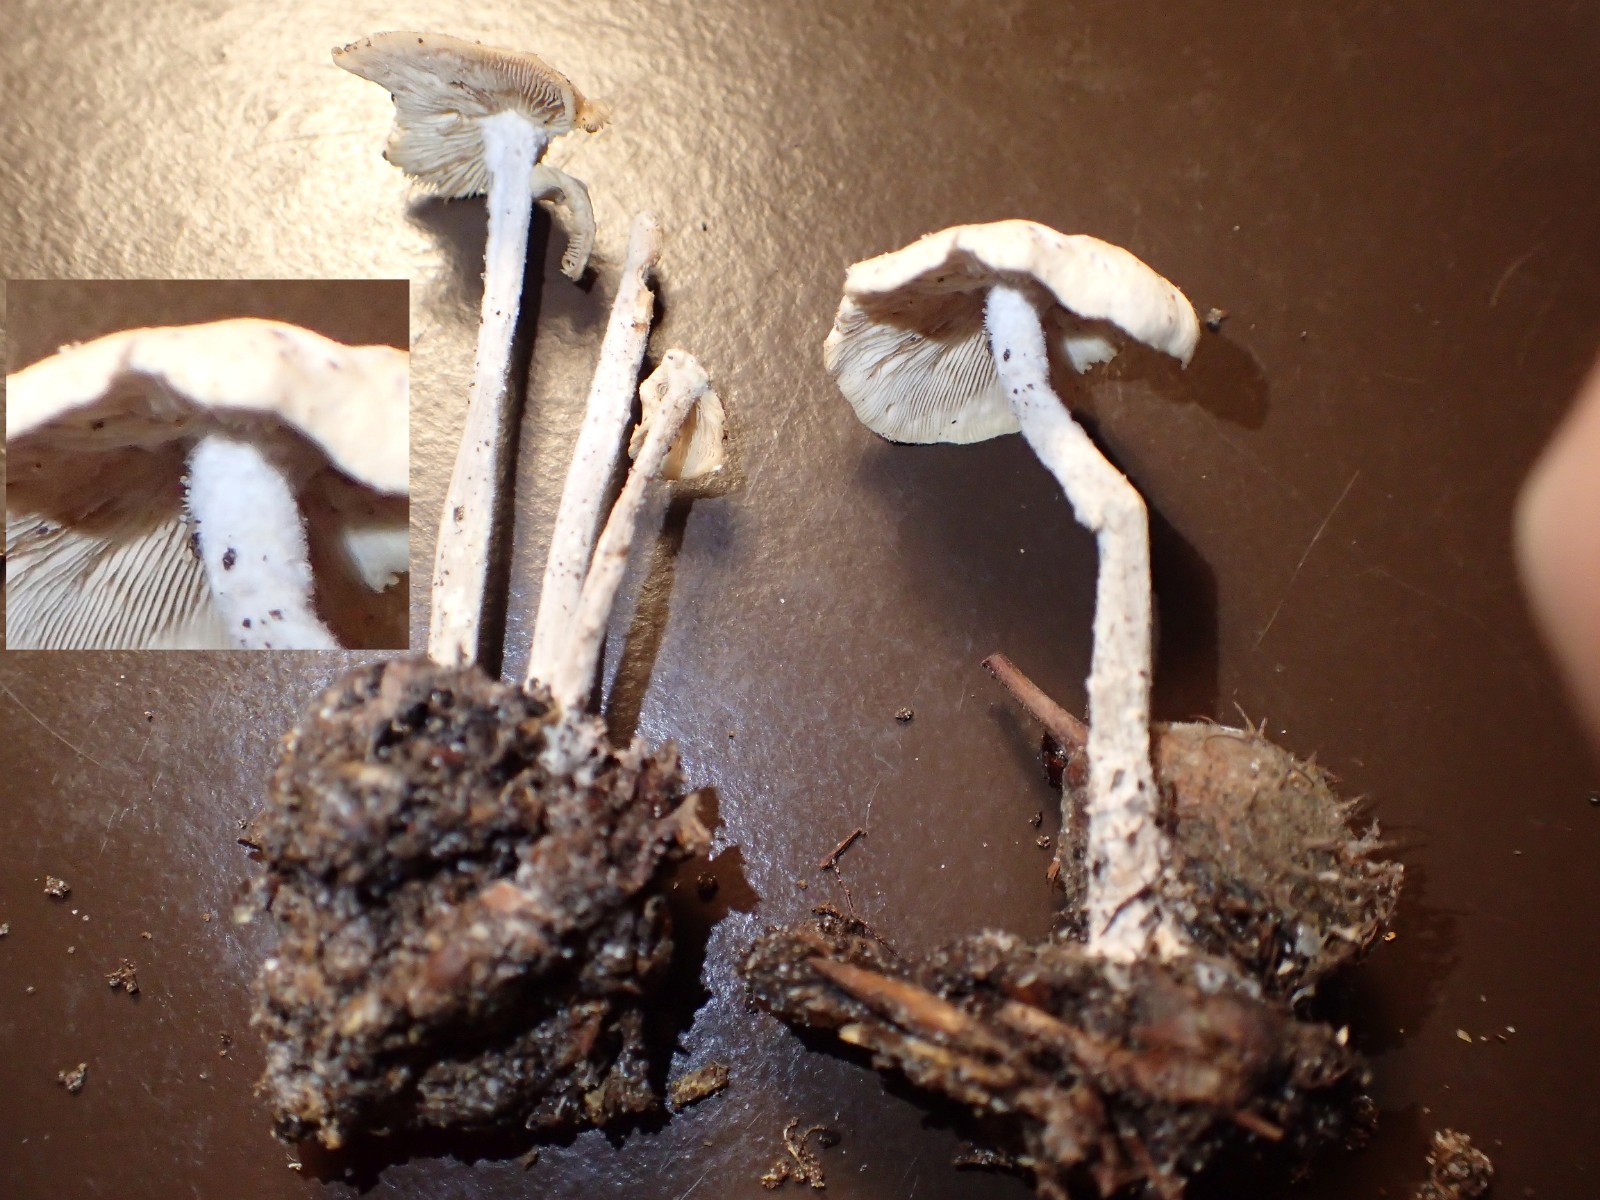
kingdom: Fungi
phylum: Basidiomycota
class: Agaricomycetes
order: Agaricales
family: Omphalotaceae
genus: Collybiopsis
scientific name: Collybiopsis confluens
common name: knippe-fladhat
